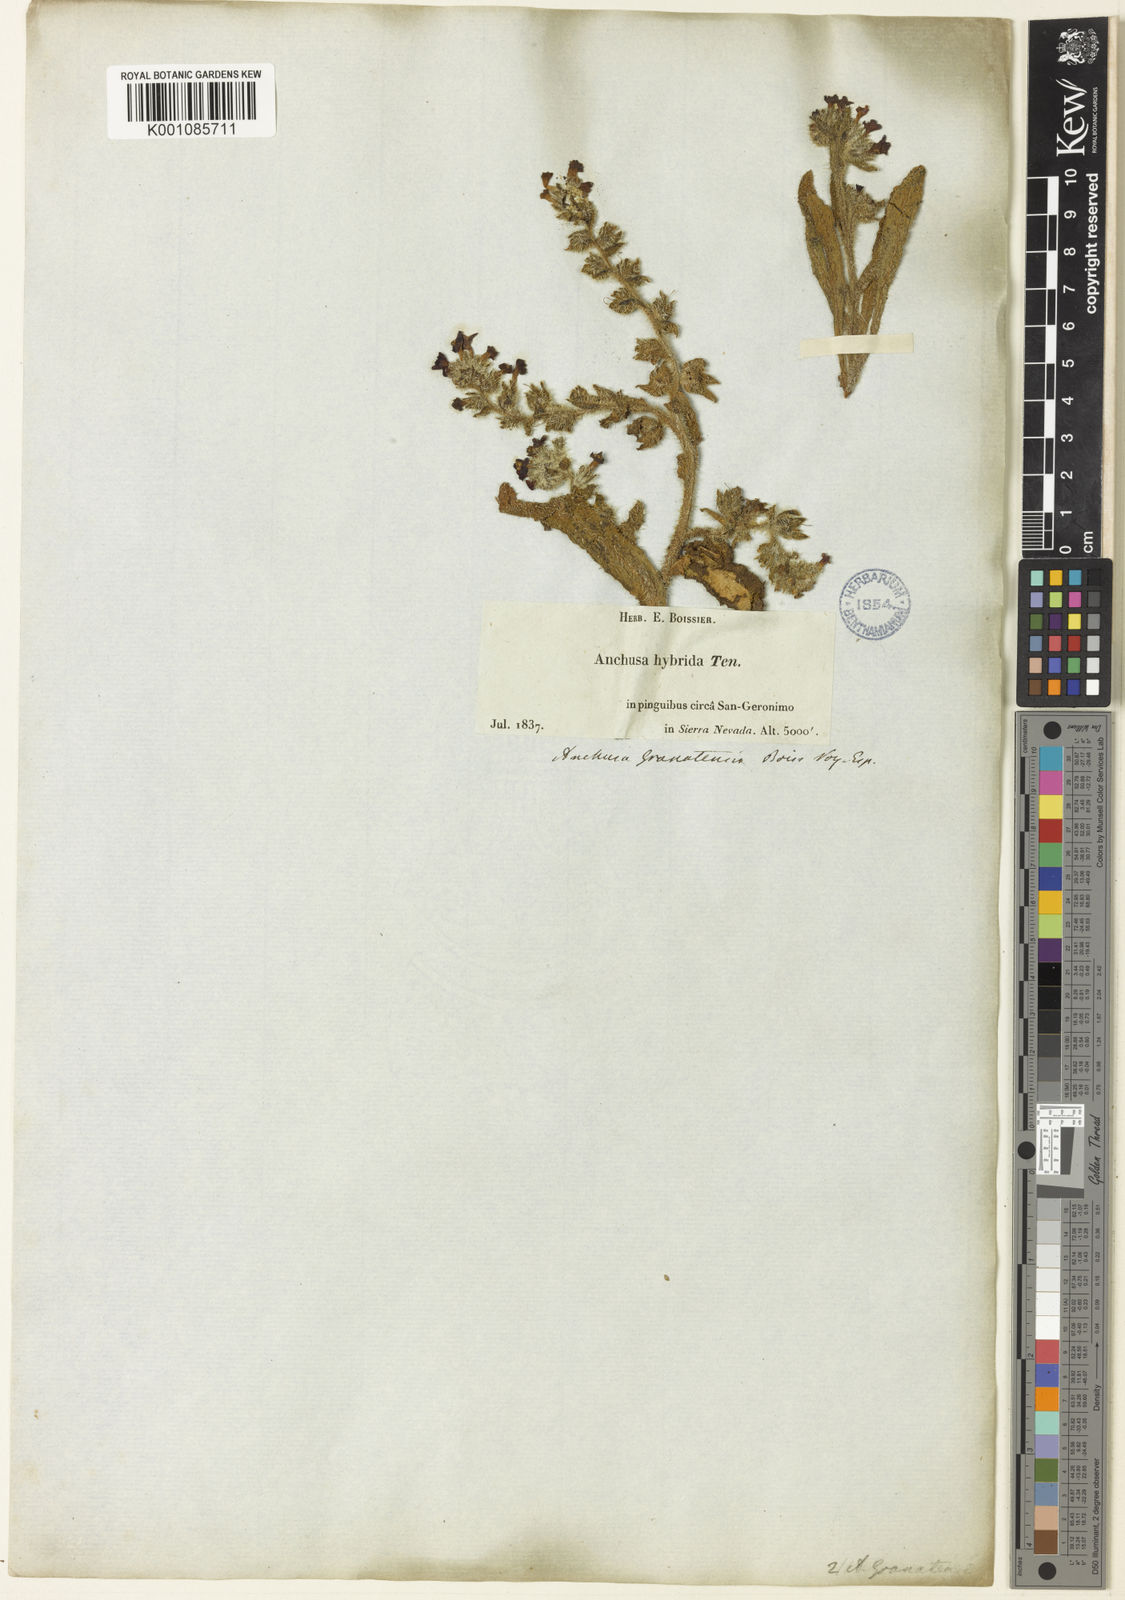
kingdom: Plantae
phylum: Tracheophyta
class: Magnoliopsida
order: Boraginales
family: Boraginaceae
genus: Anchusa
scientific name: Anchusa undulata
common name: Undulate alkanet
